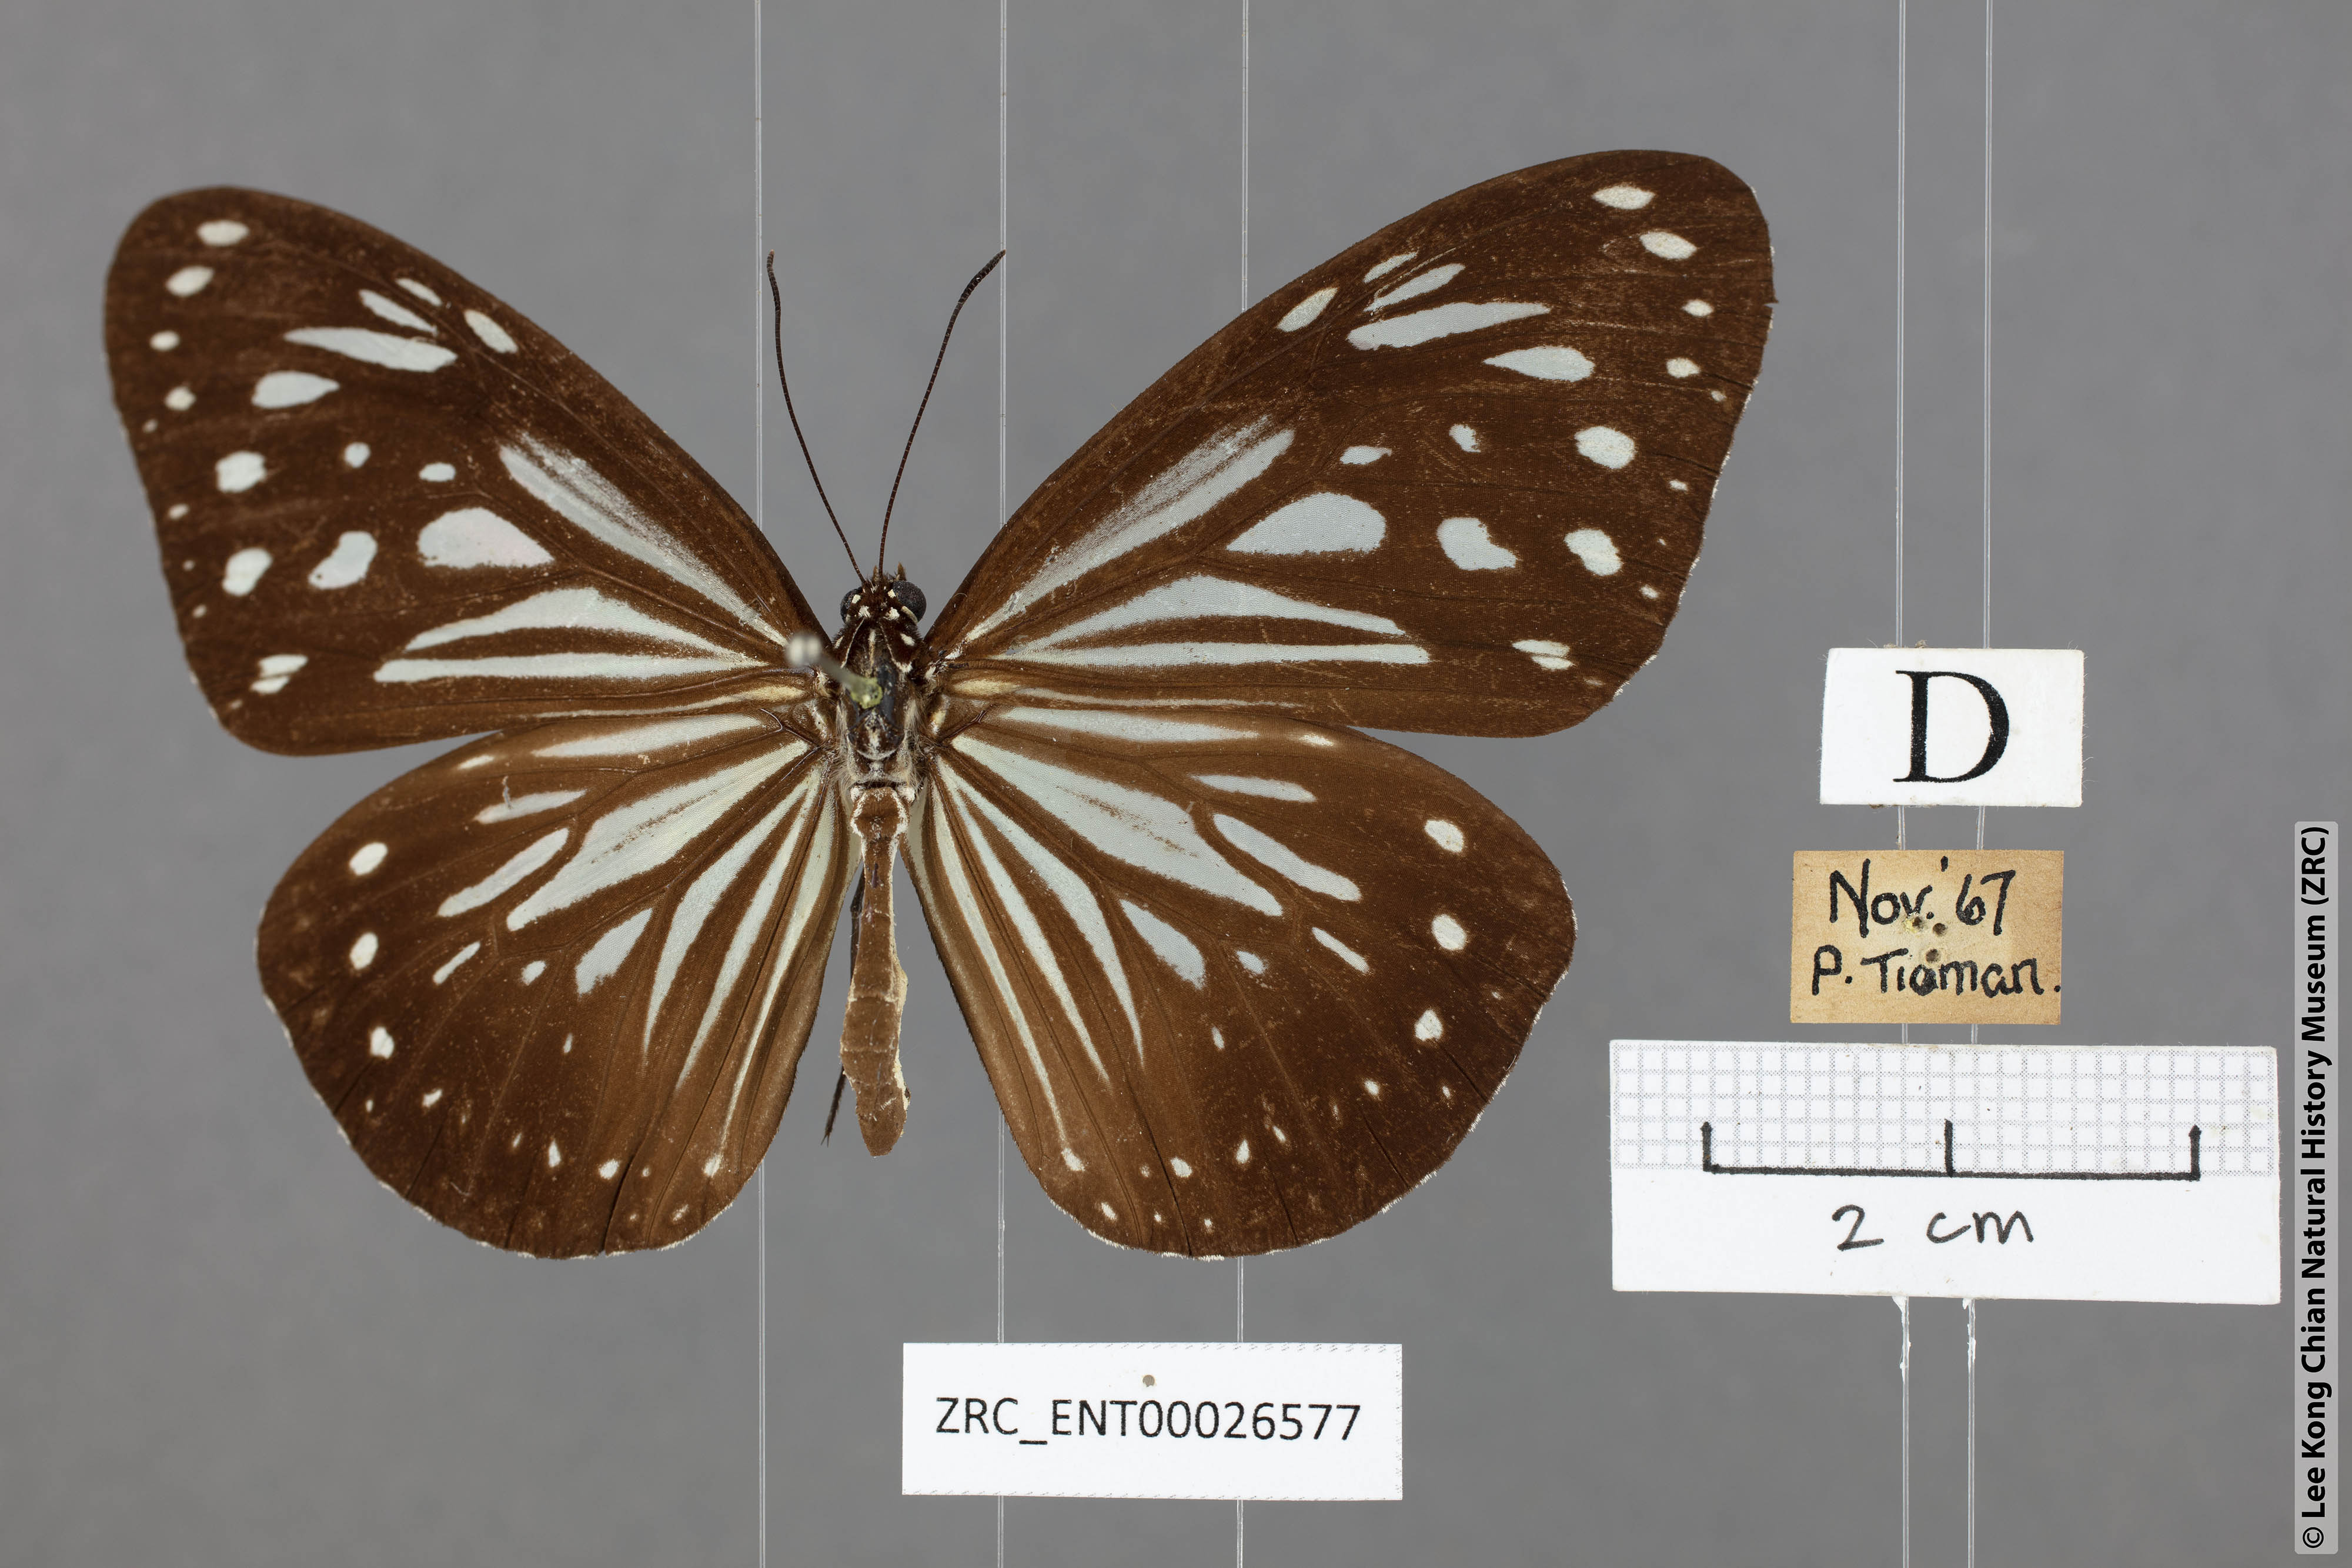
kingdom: Animalia
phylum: Arthropoda
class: Insecta
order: Lepidoptera
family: Nymphalidae
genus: Parantica
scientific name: Parantica luzonensis
